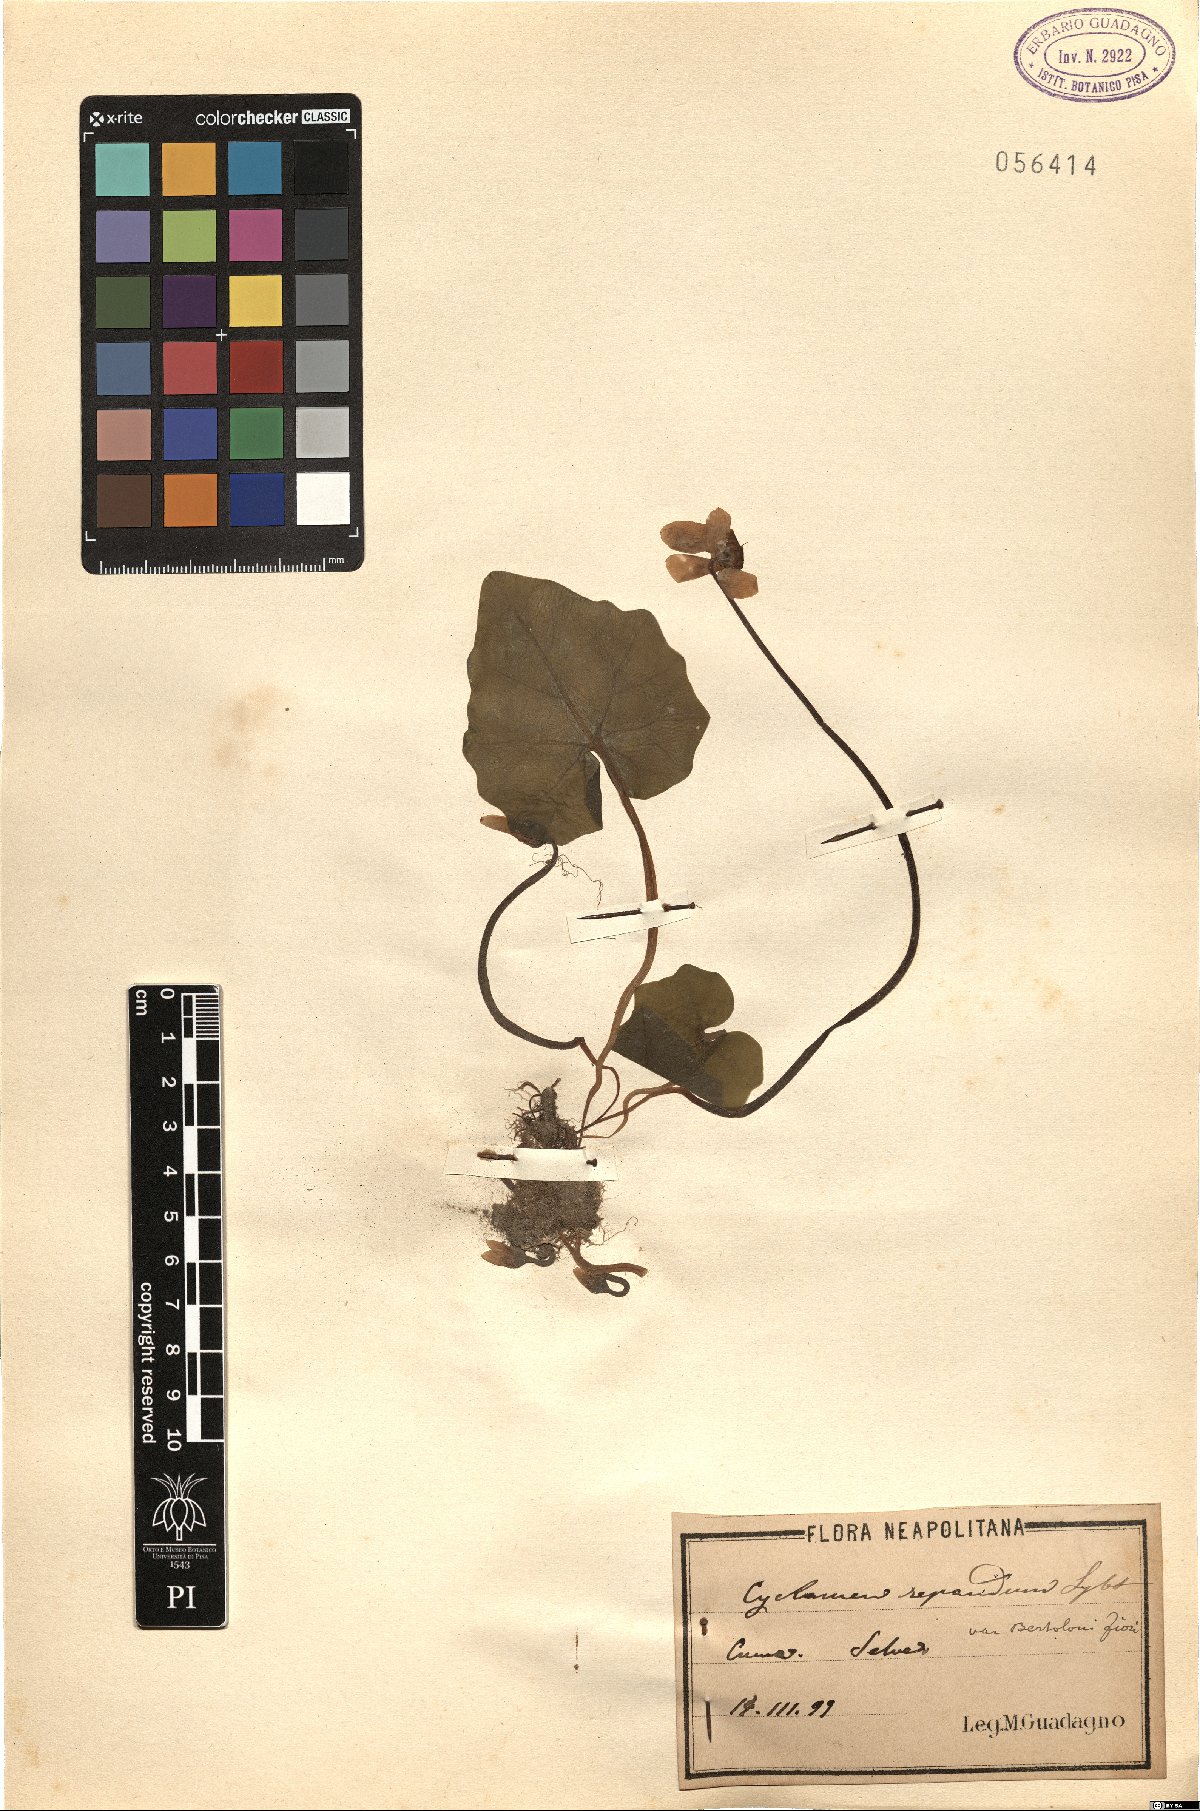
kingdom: Plantae
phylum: Tracheophyta
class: Magnoliopsida
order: Ericales
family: Primulaceae
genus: Cyclamen
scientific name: Cyclamen repandum
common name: Spring sowbread
